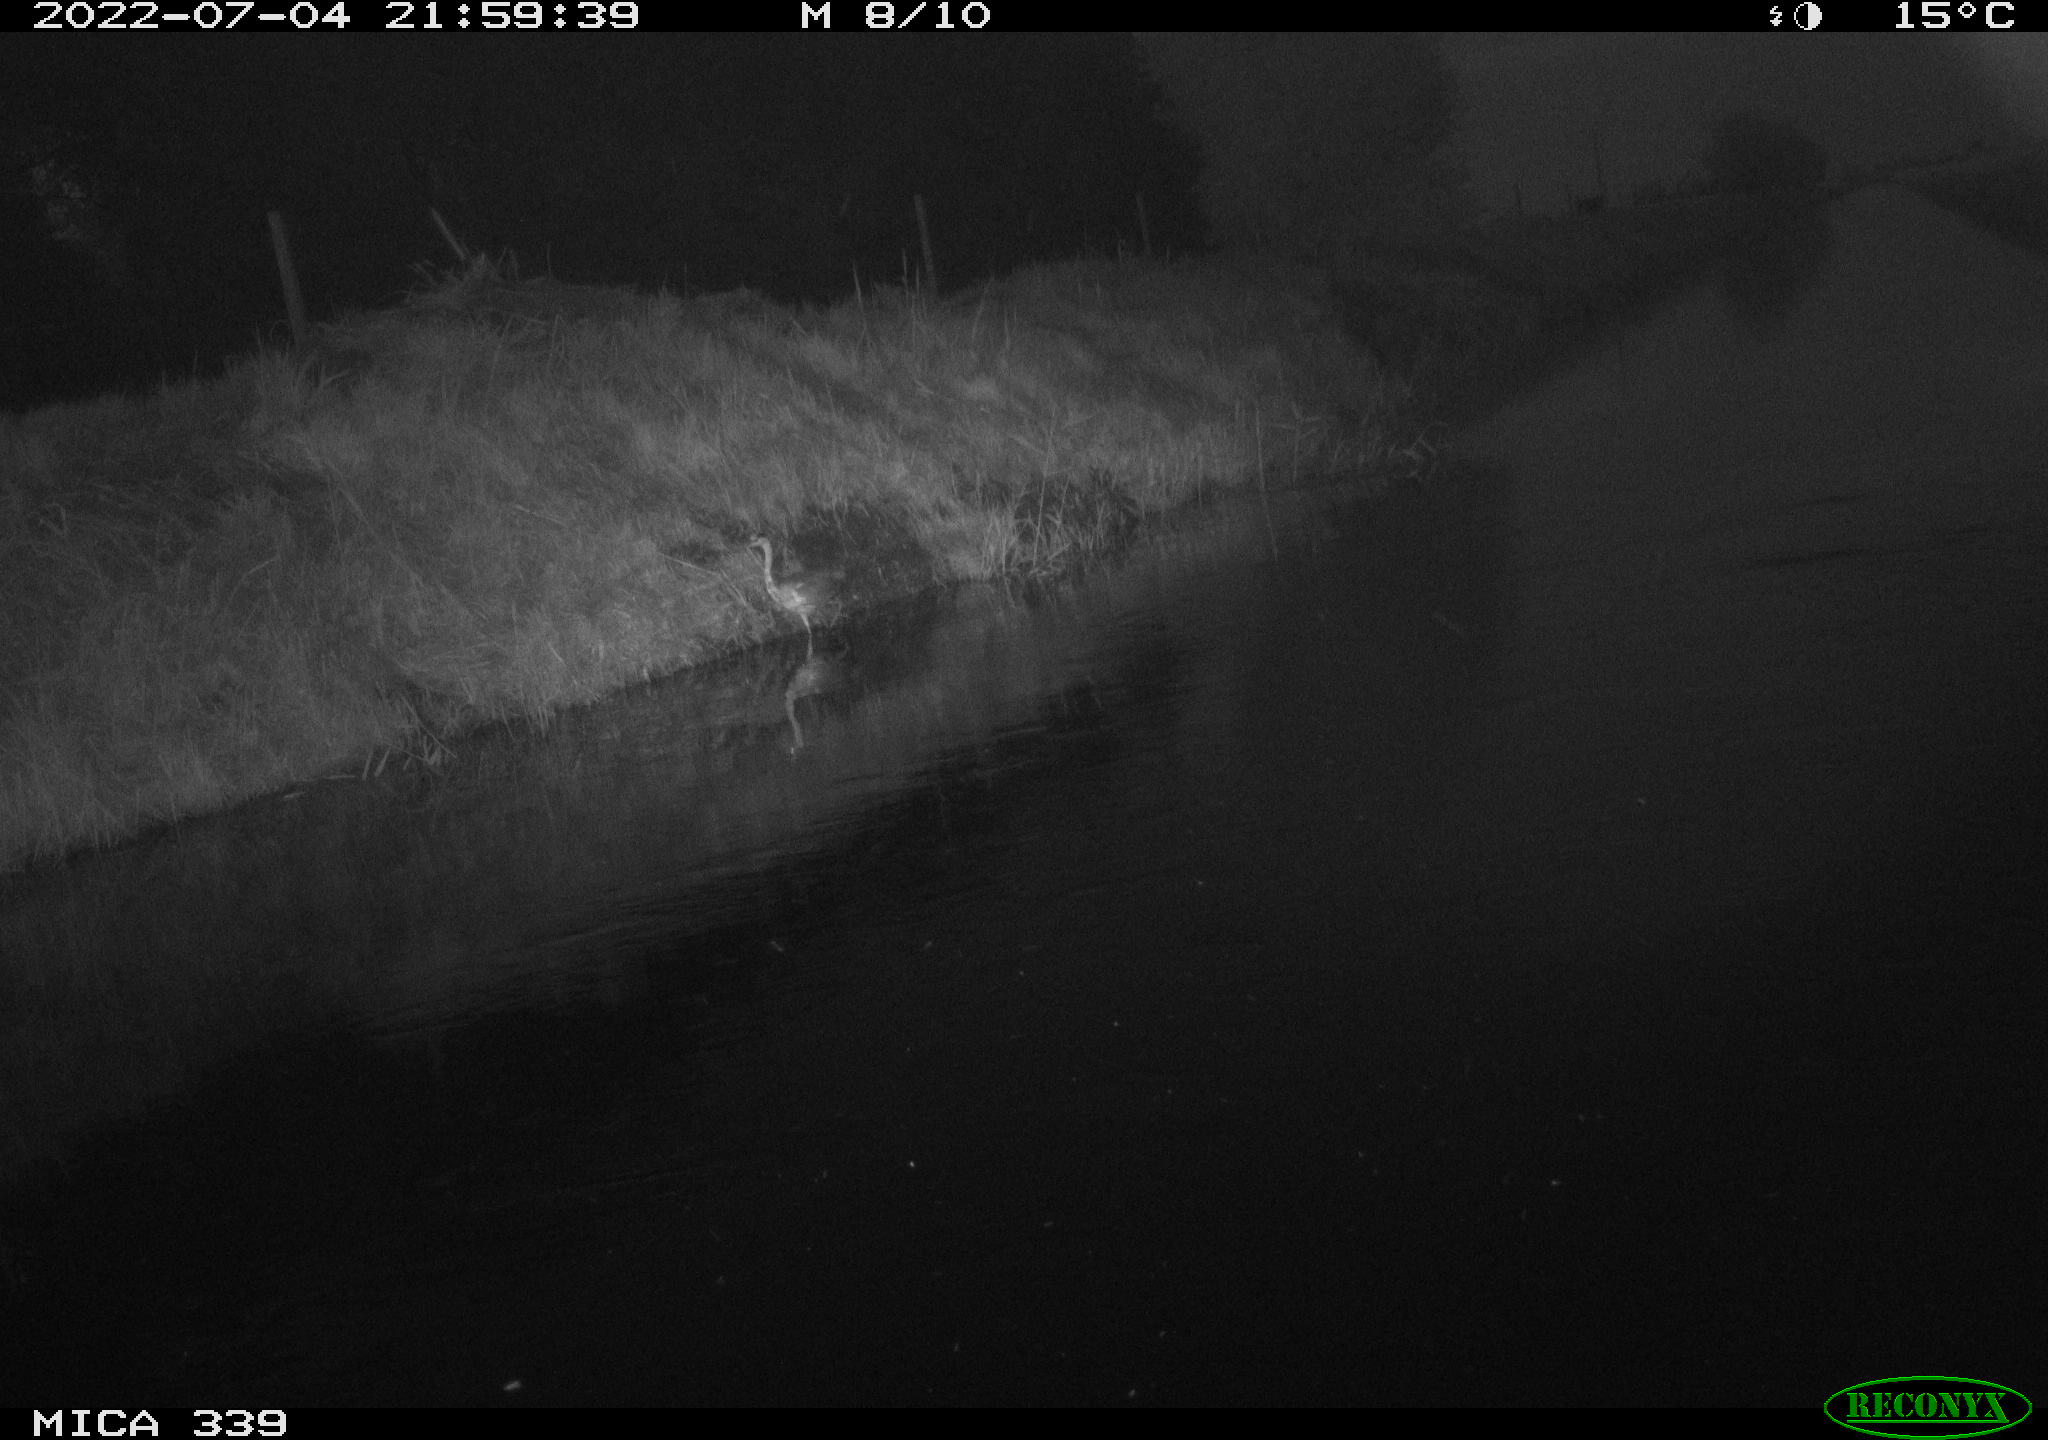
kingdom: Animalia
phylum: Chordata
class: Aves
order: Pelecaniformes
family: Ardeidae
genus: Ardea
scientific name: Ardea cinerea
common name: Grey heron
